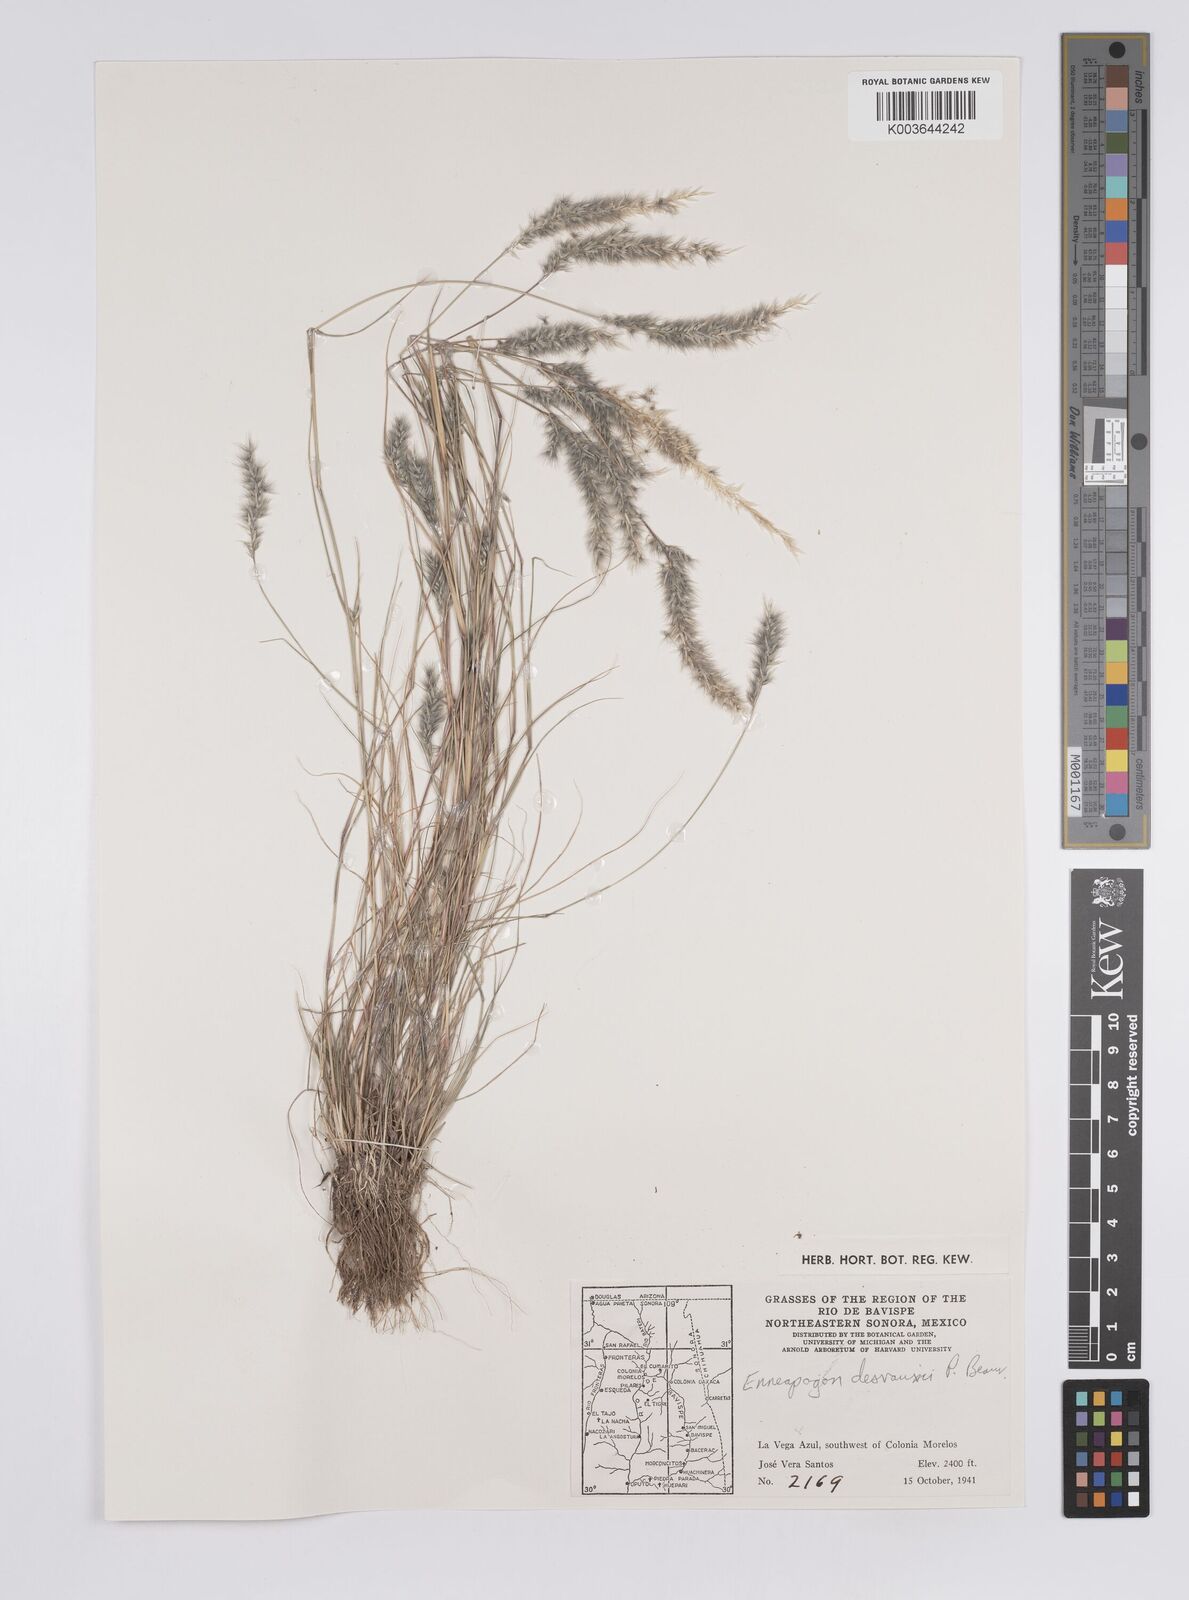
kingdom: Plantae
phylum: Tracheophyta
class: Liliopsida
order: Poales
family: Poaceae
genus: Enneapogon
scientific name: Enneapogon desvauxii
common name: Feather pappus grass
